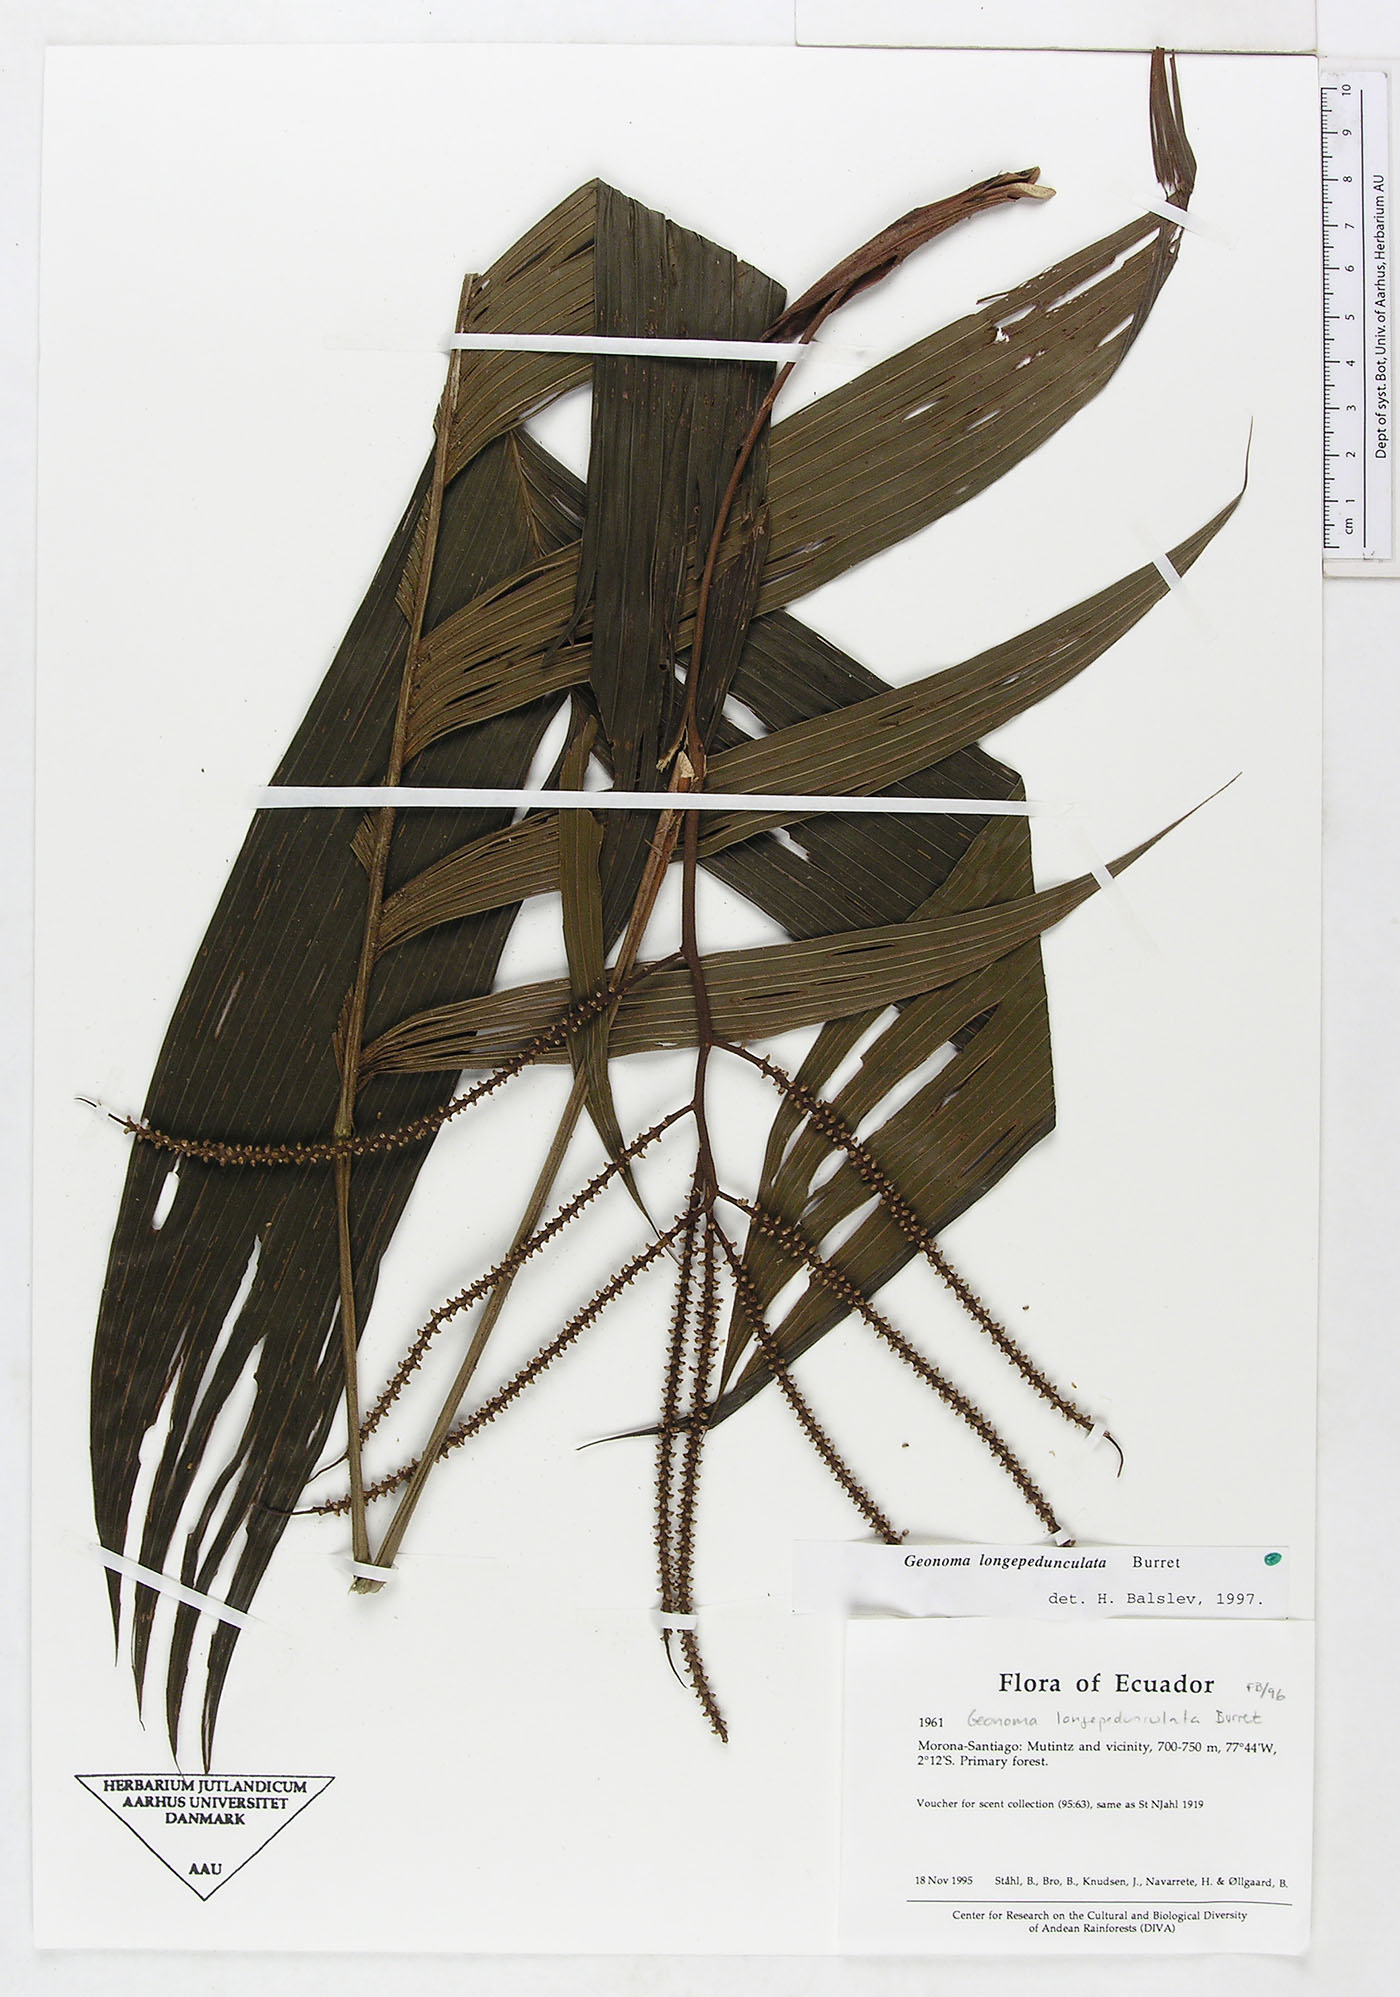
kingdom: Plantae
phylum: Tracheophyta
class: Liliopsida
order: Arecales
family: Arecaceae
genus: Geonoma
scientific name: Geonoma longepedunculata
